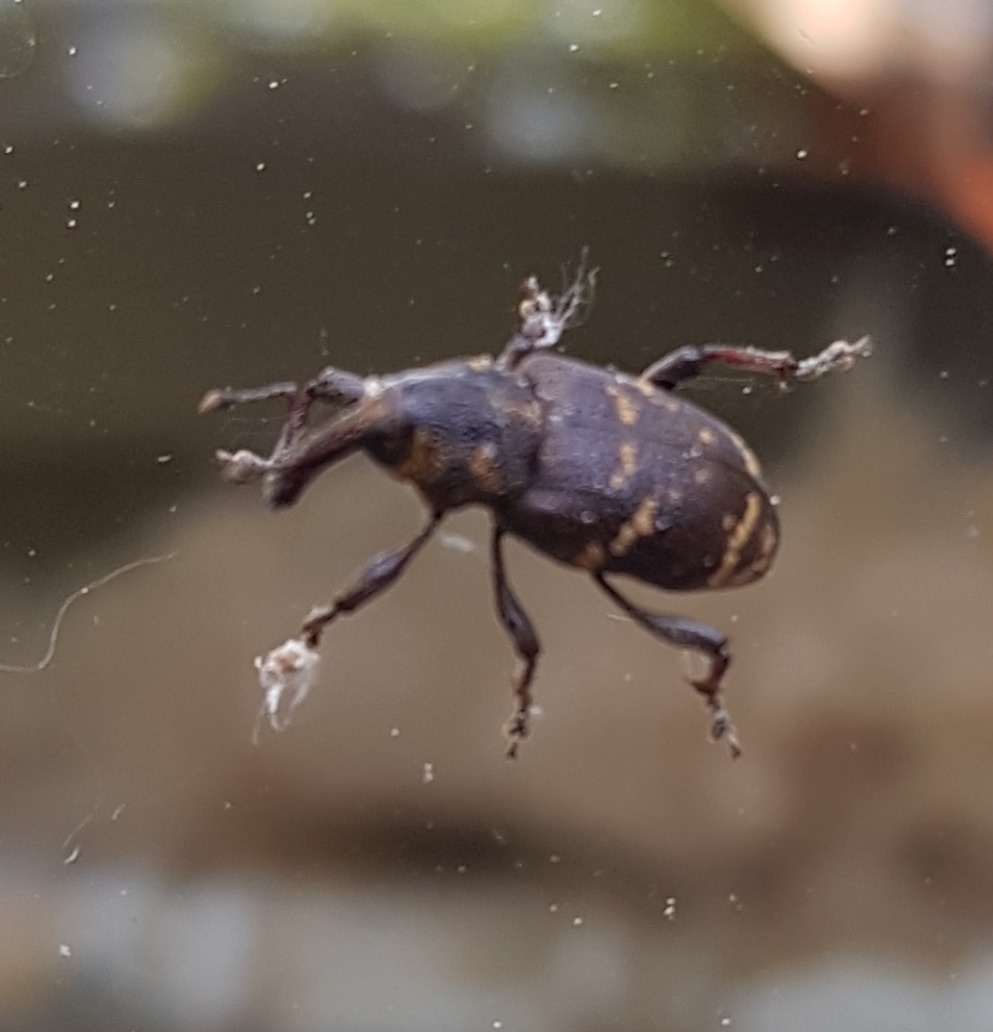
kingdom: Animalia
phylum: Arthropoda
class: Insecta
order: Coleoptera
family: Curculionidae
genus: Hylobius
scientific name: Hylobius abietis
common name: Stor nåletræsnudebille
